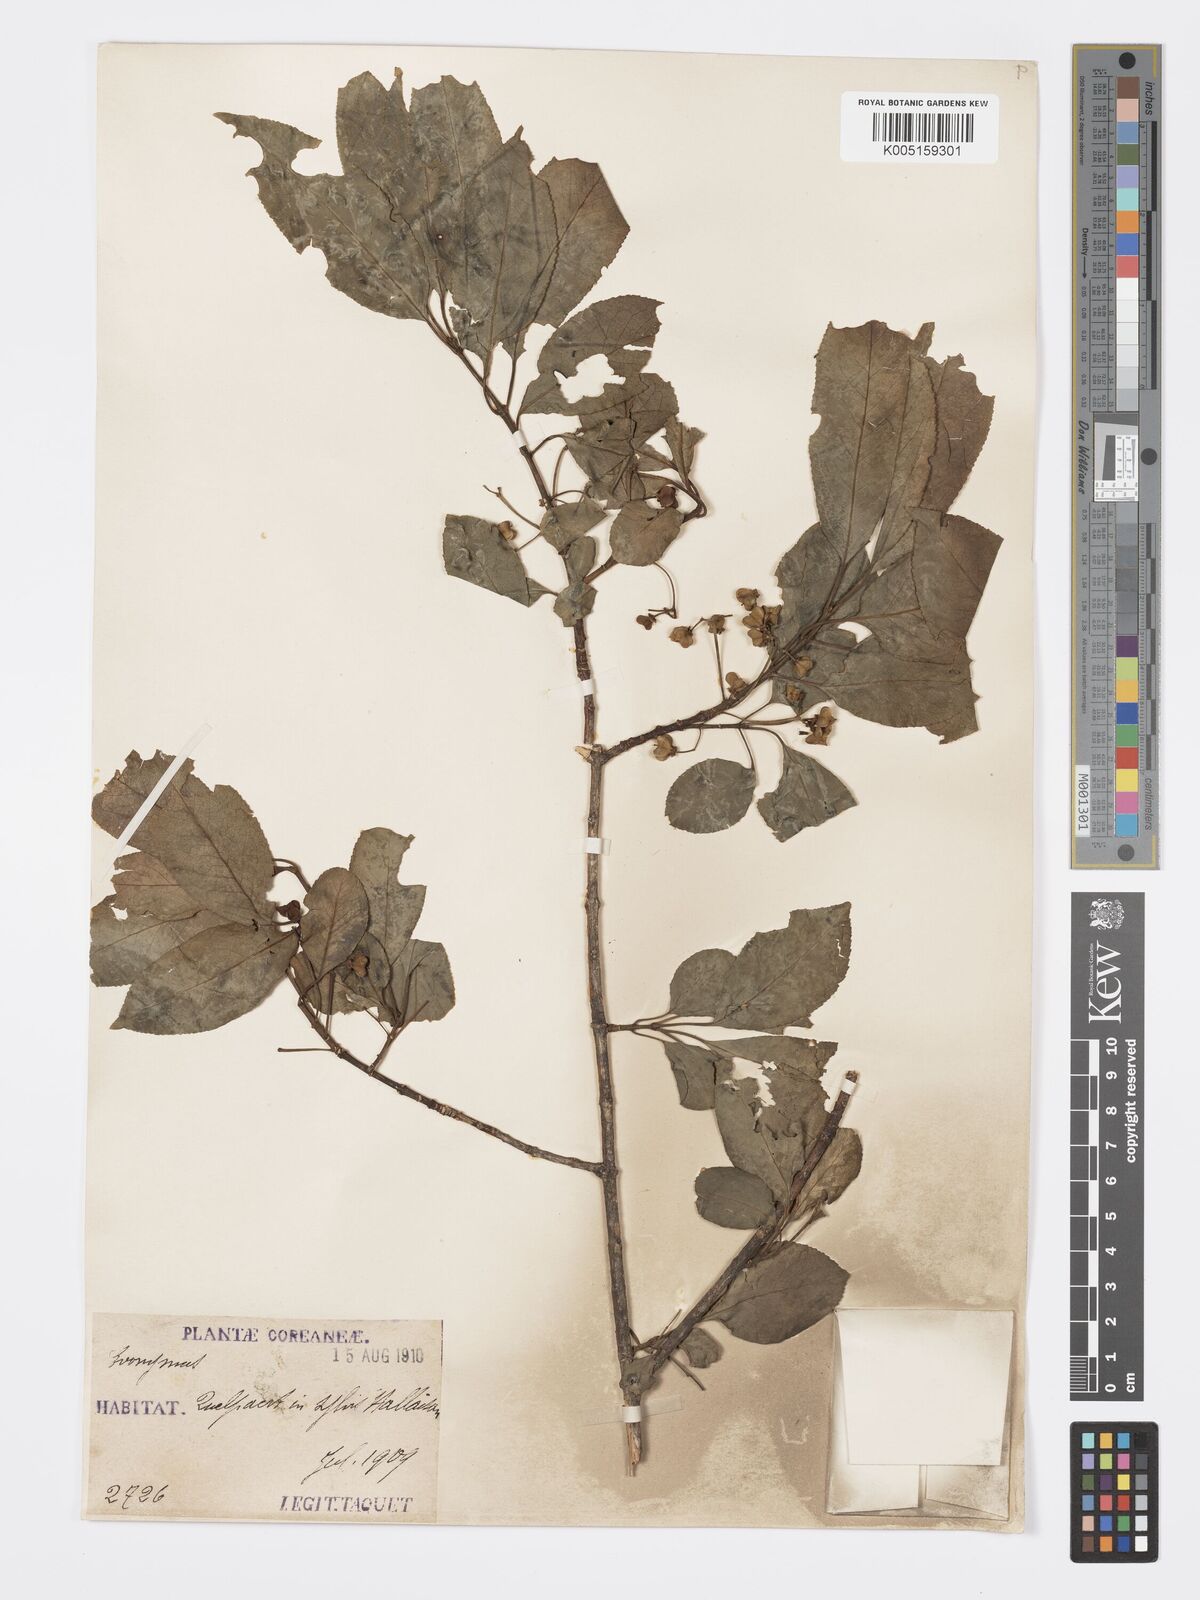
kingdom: Plantae
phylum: Tracheophyta
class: Magnoliopsida
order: Celastrales
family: Celastraceae
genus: Euonymus
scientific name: Euonymus maackii
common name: Hamilton's spindletree
